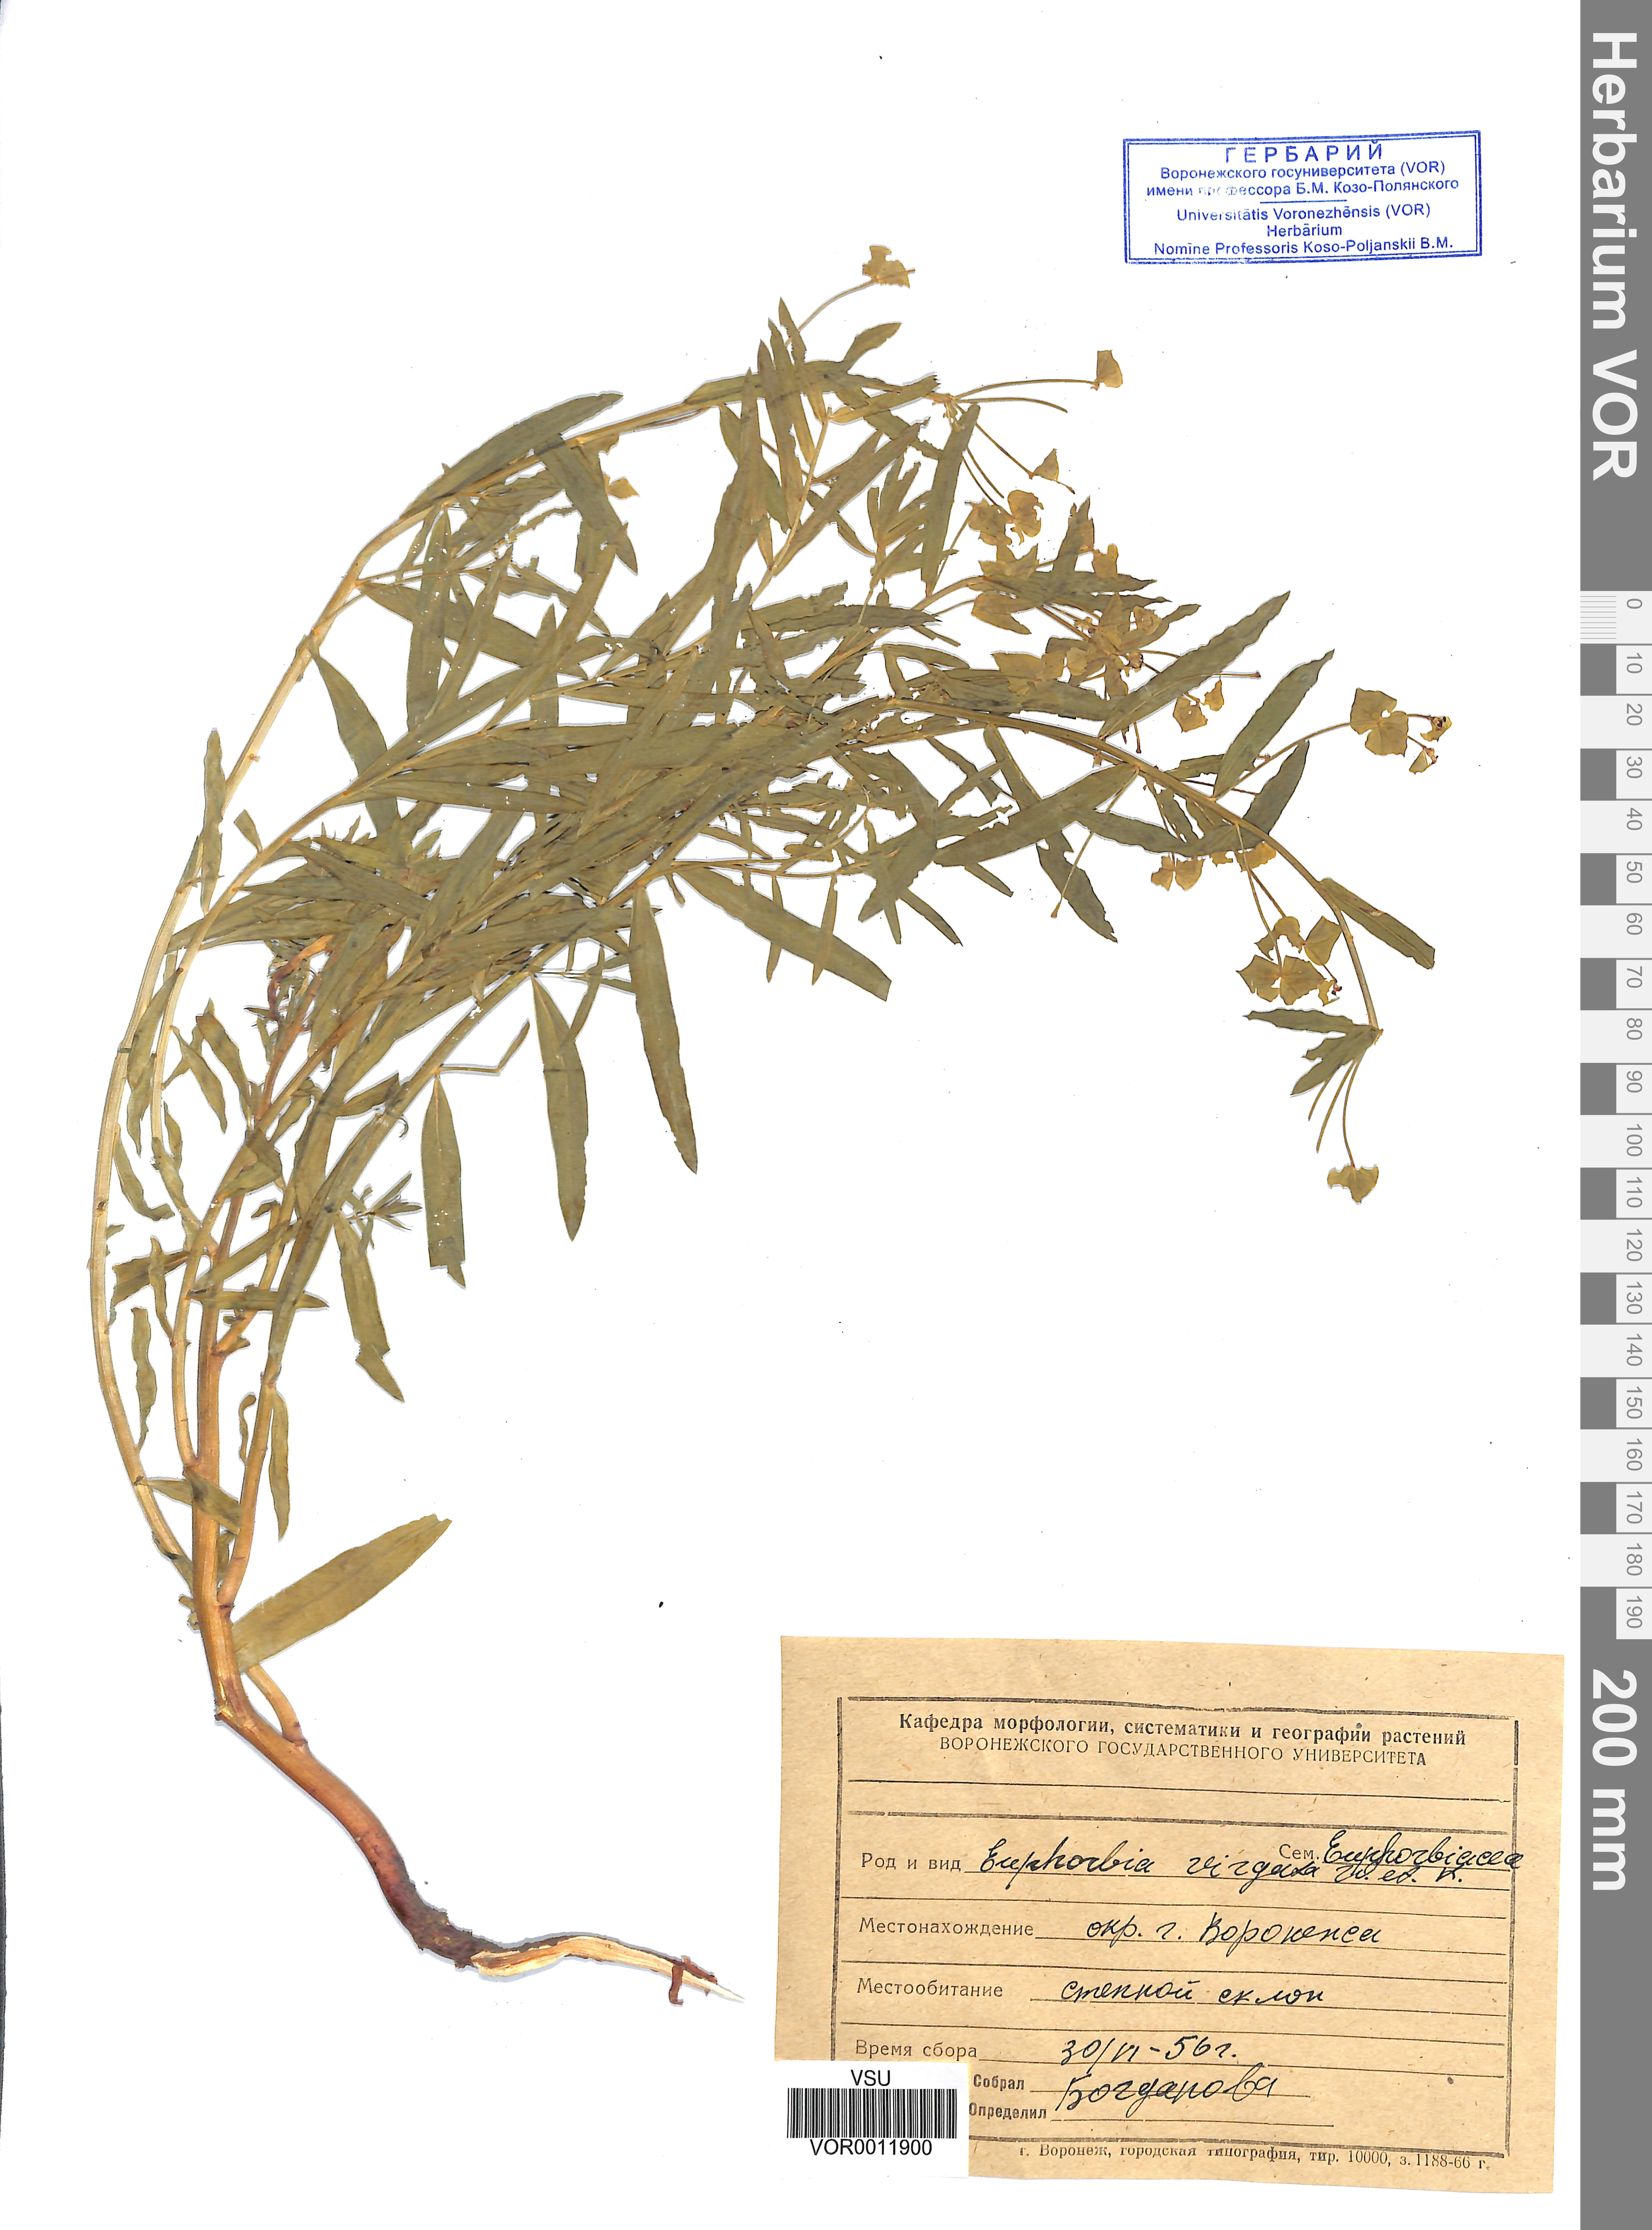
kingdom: Plantae
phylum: Tracheophyta
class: Magnoliopsida
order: Malpighiales
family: Euphorbiaceae
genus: Euphorbia
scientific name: Euphorbia virgata
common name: Leafy spurge
